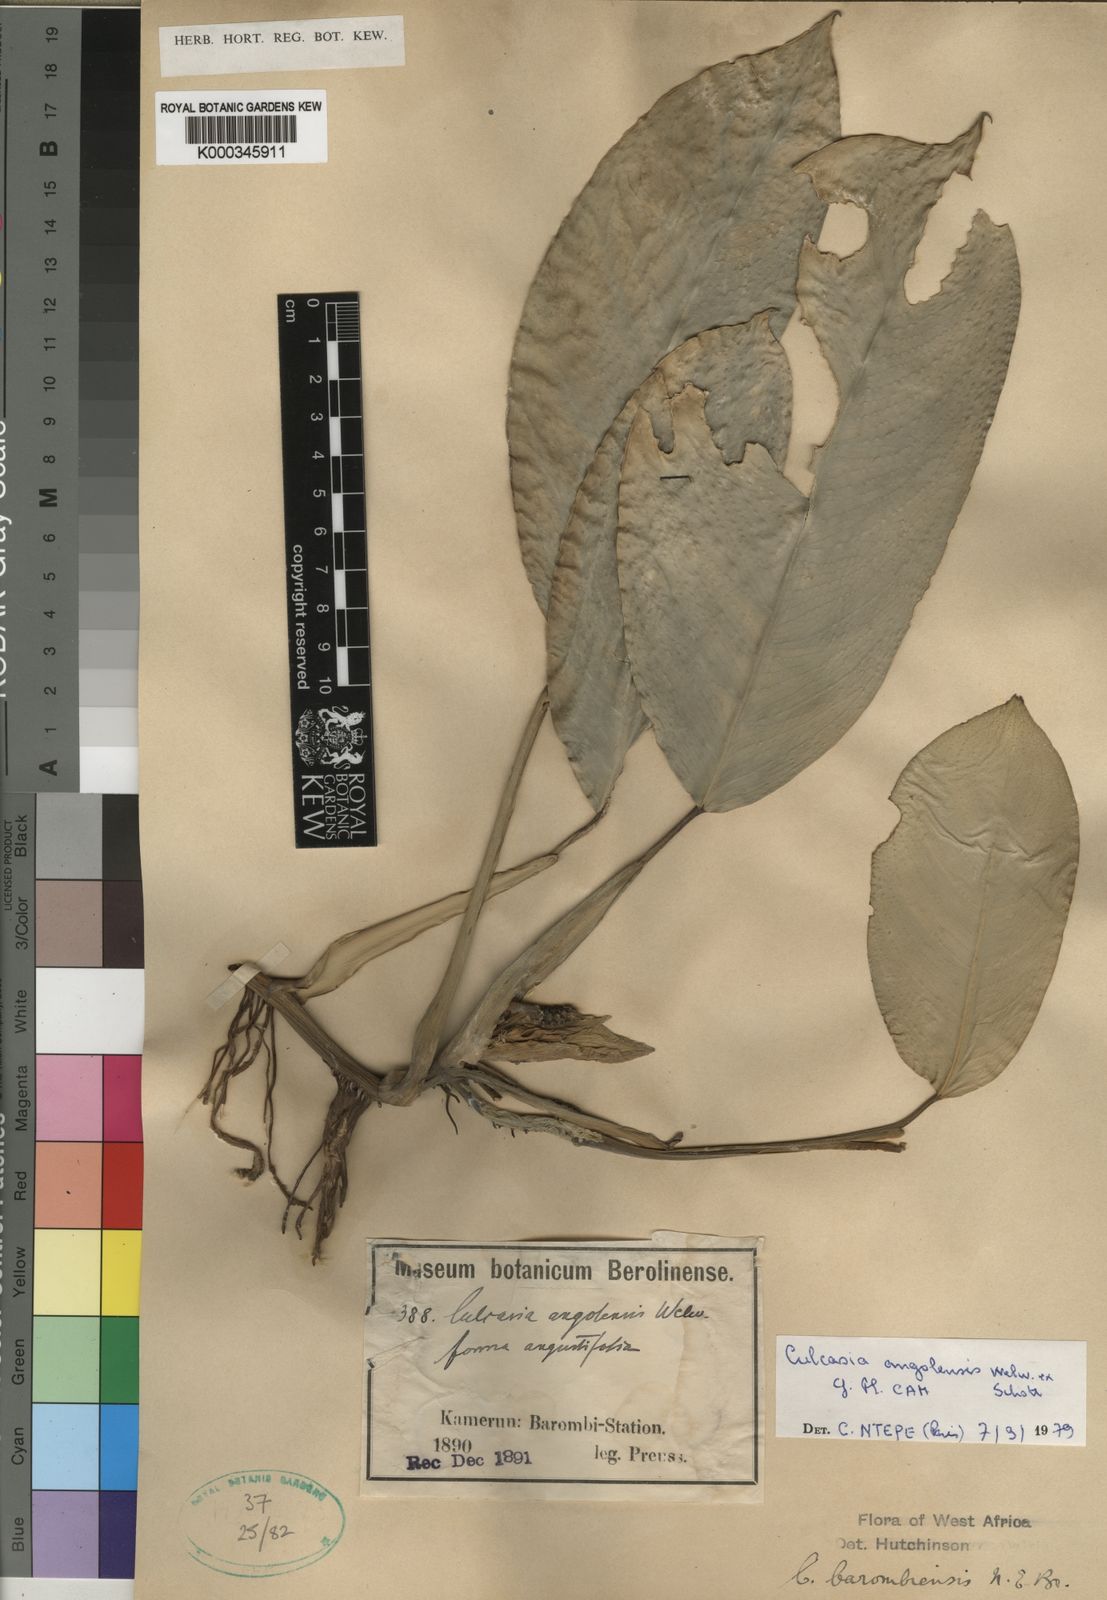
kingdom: Plantae
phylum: Tracheophyta
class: Liliopsida
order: Alismatales
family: Araceae
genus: Culcasia
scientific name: Culcasia angolensis
